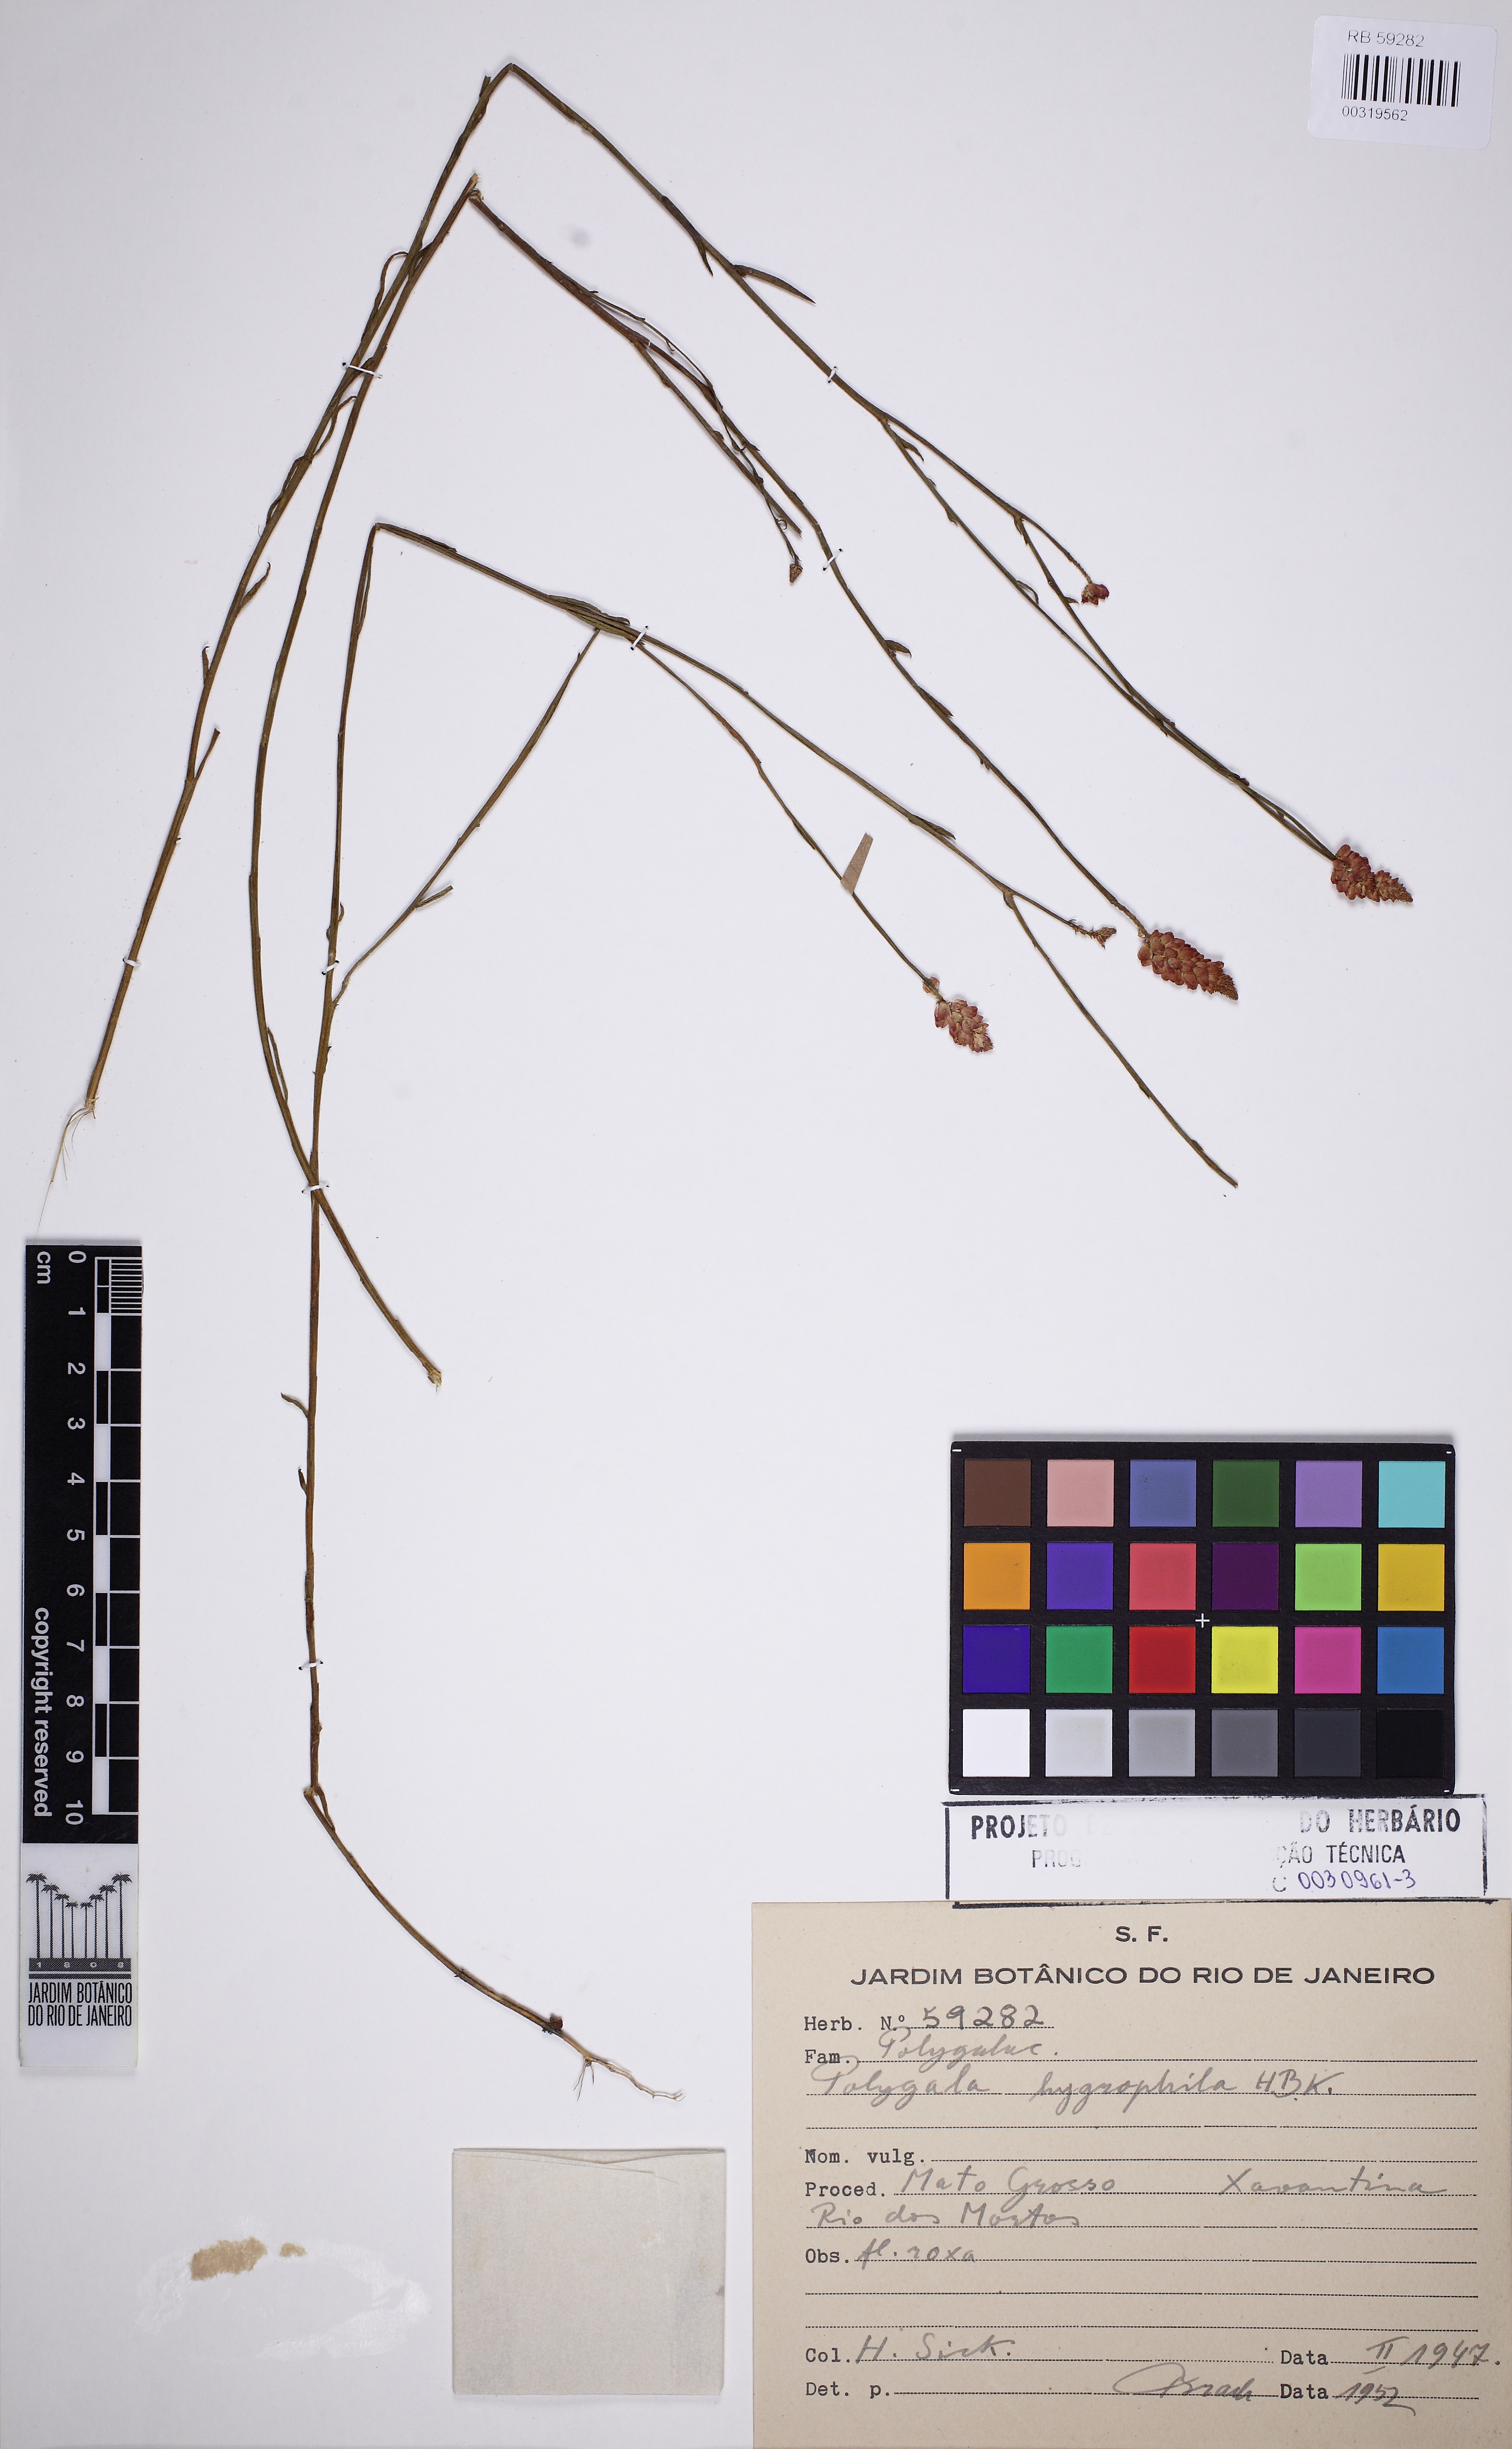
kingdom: Plantae
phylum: Tracheophyta
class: Magnoliopsida
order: Fabales
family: Polygalaceae
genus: Polygala
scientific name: Polygala hygrophila
